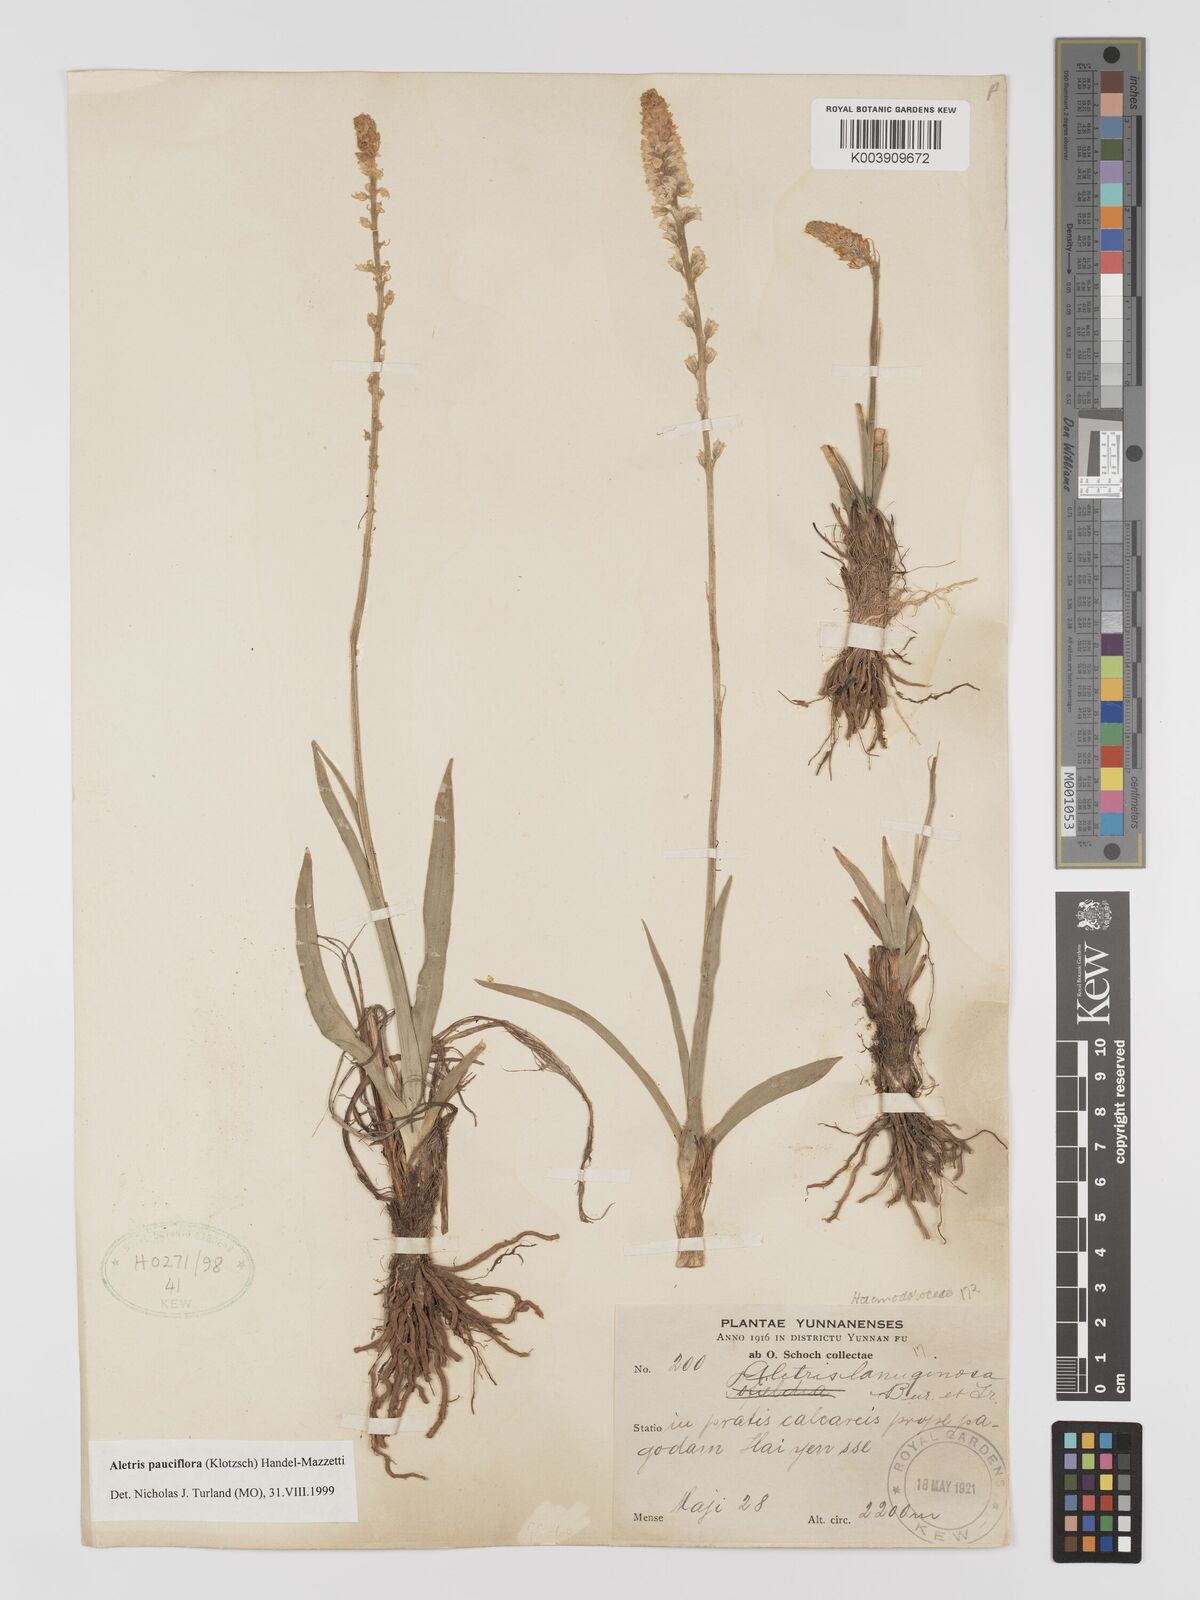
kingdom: Plantae
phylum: Tracheophyta
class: Liliopsida
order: Dioscoreales
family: Nartheciaceae
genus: Aletris
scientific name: Aletris pauciflora
